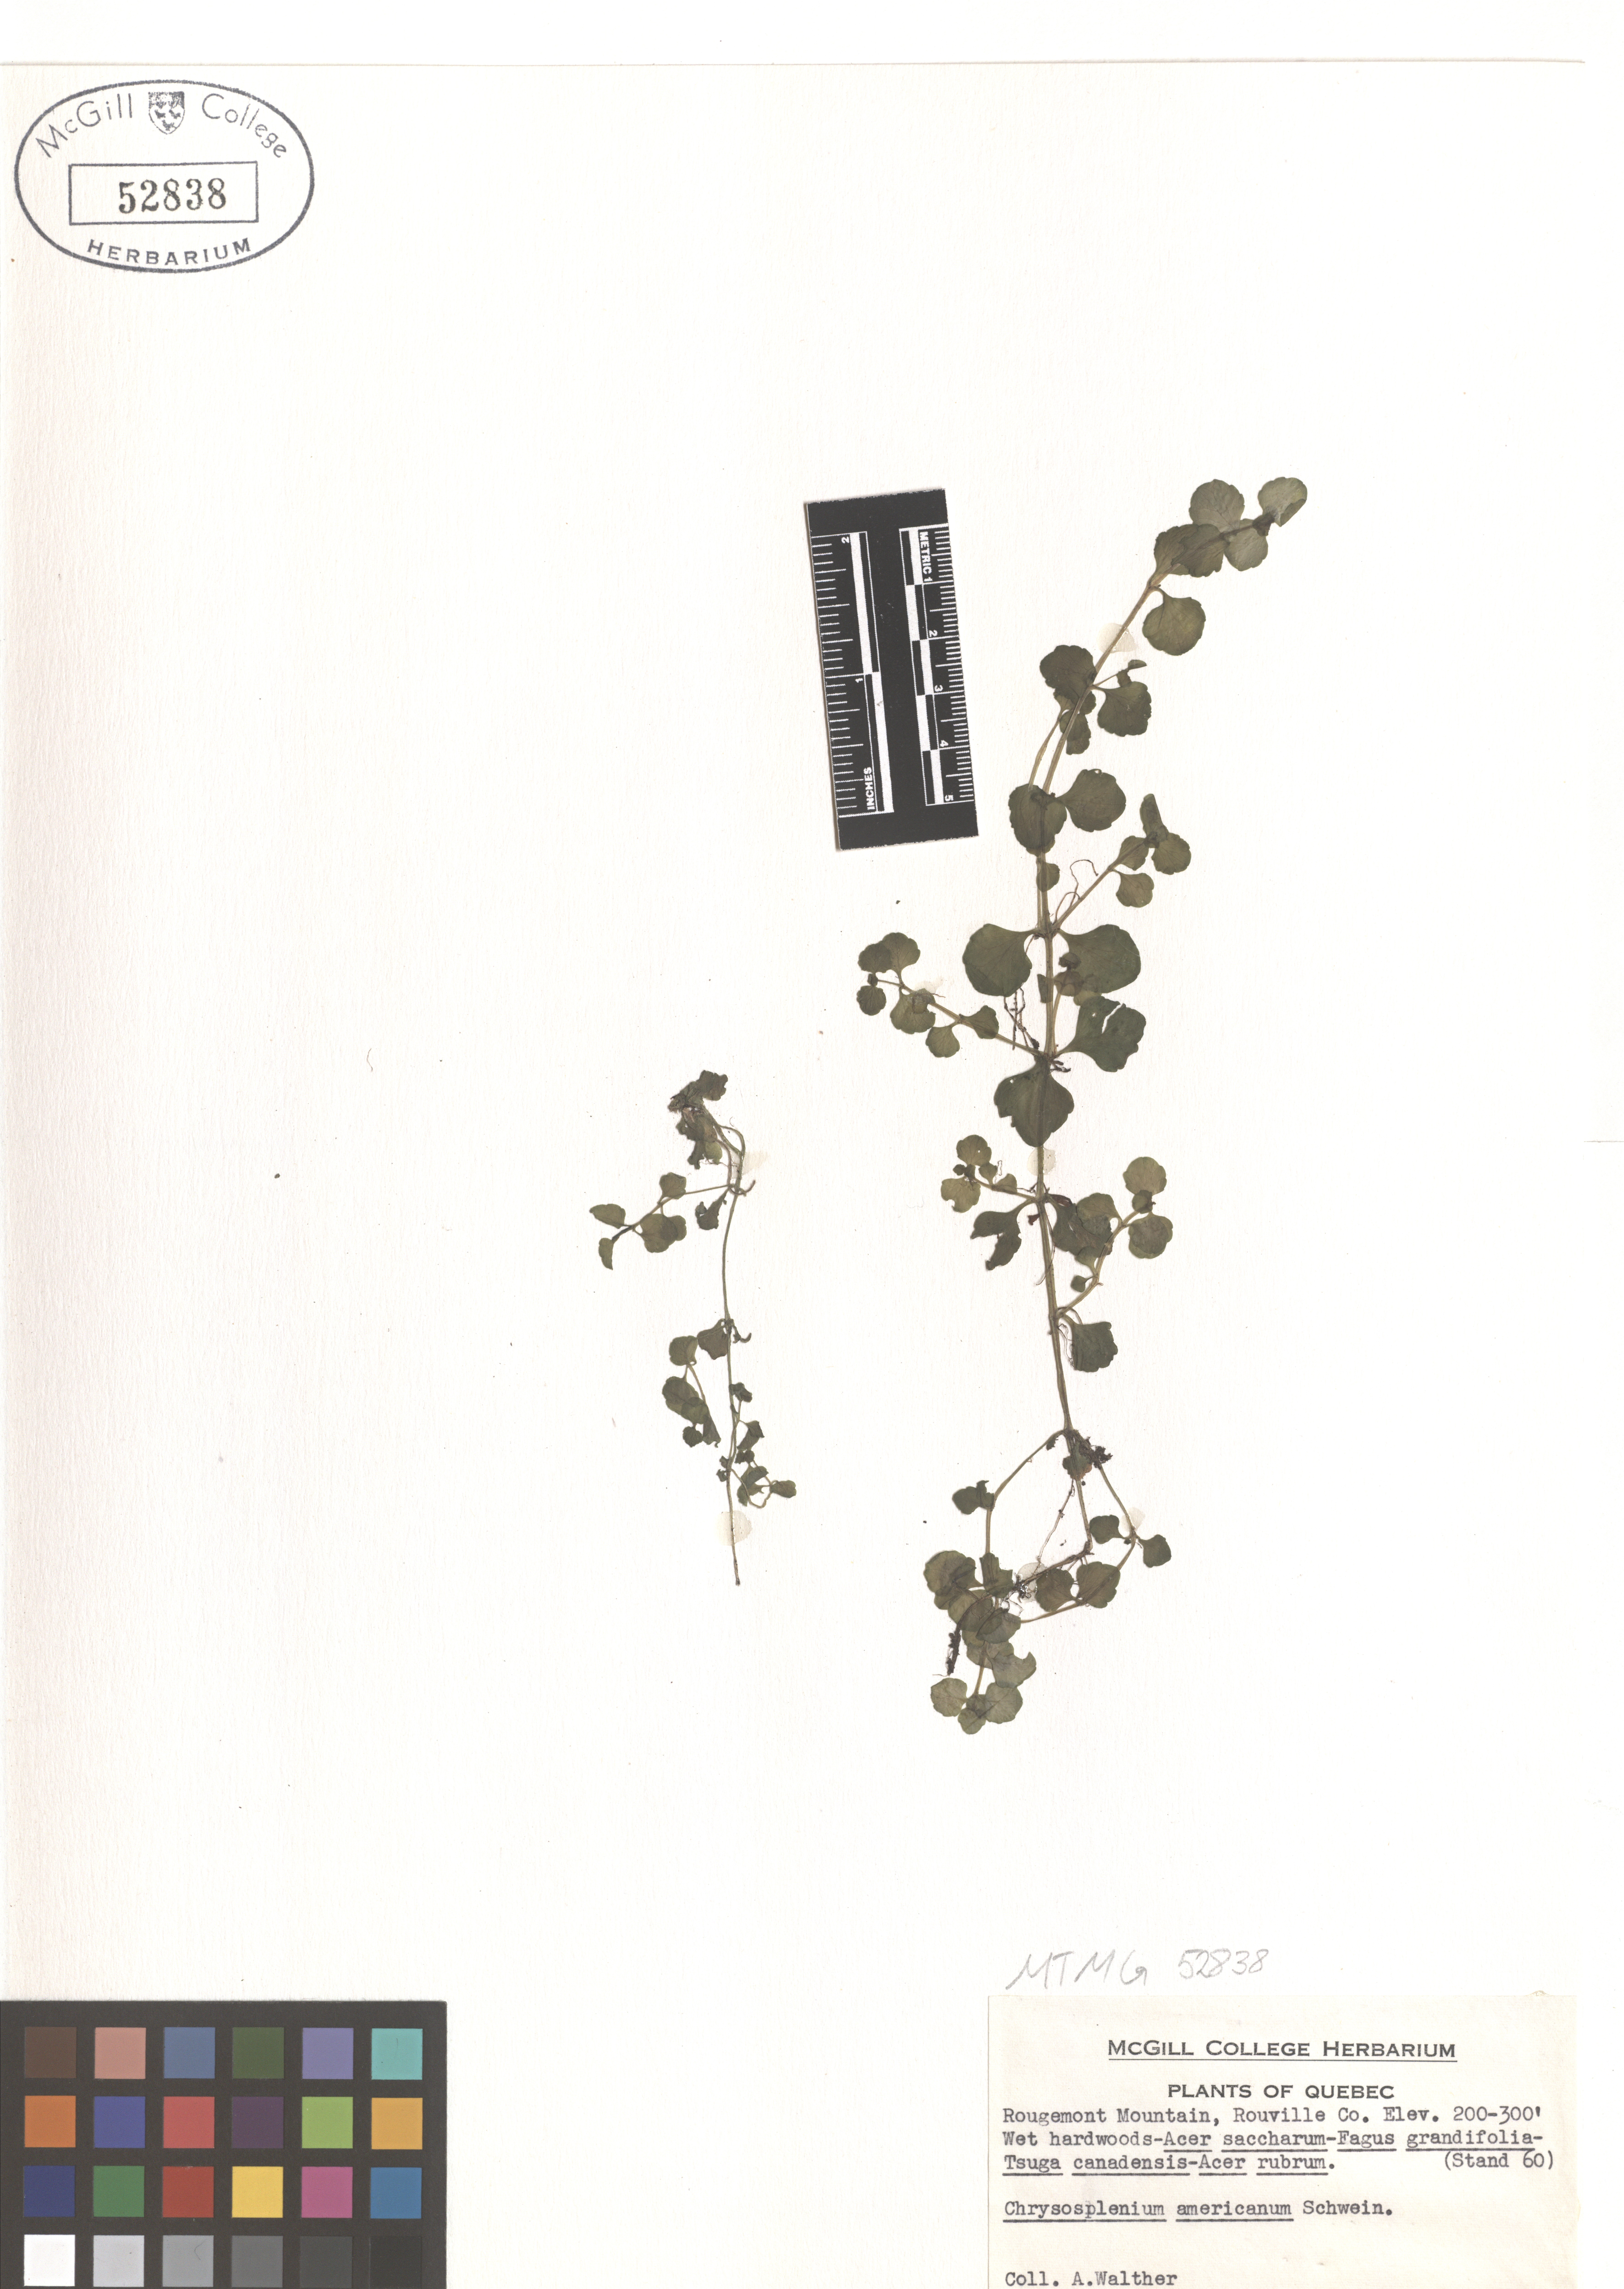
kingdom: Plantae
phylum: Tracheophyta
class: Magnoliopsida
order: Saxifragales
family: Saxifragaceae
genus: Chrysosplenium
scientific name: Chrysosplenium americanum
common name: American golden-saxifrage
